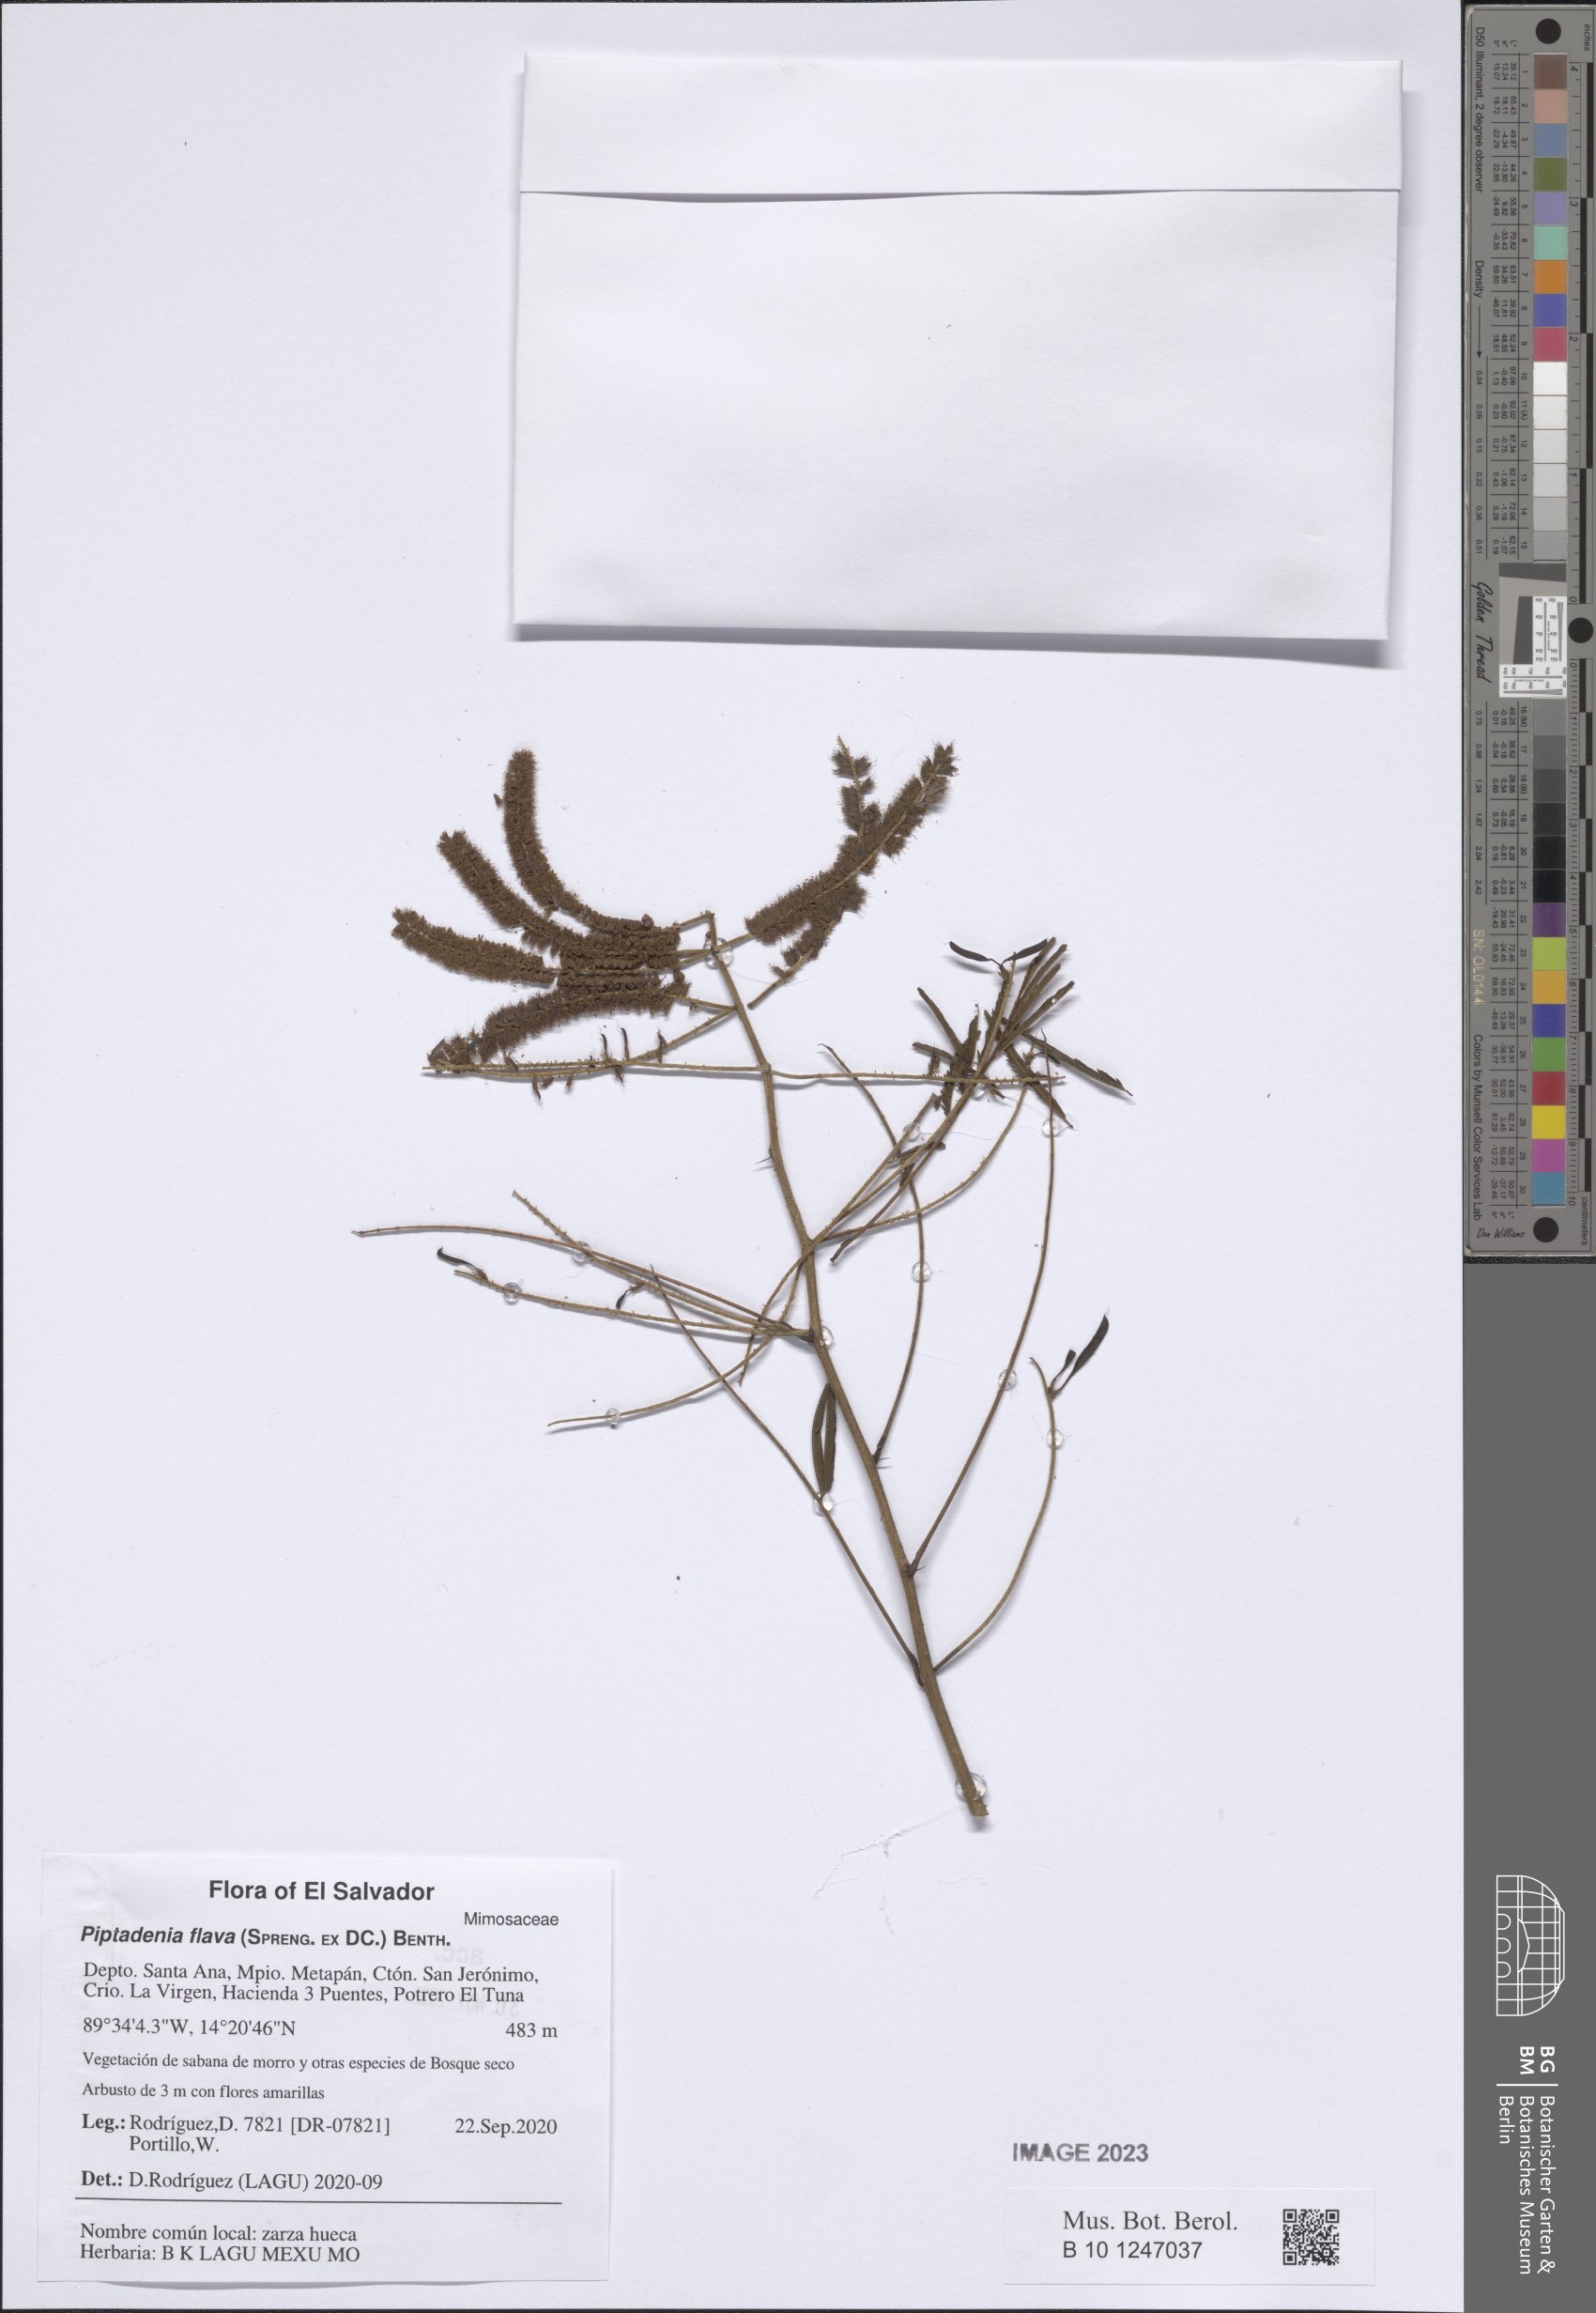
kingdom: Plantae
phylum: Tracheophyta
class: Magnoliopsida
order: Fabales
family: Fabaceae
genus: Piptadenia
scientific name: Piptadenia retusa
